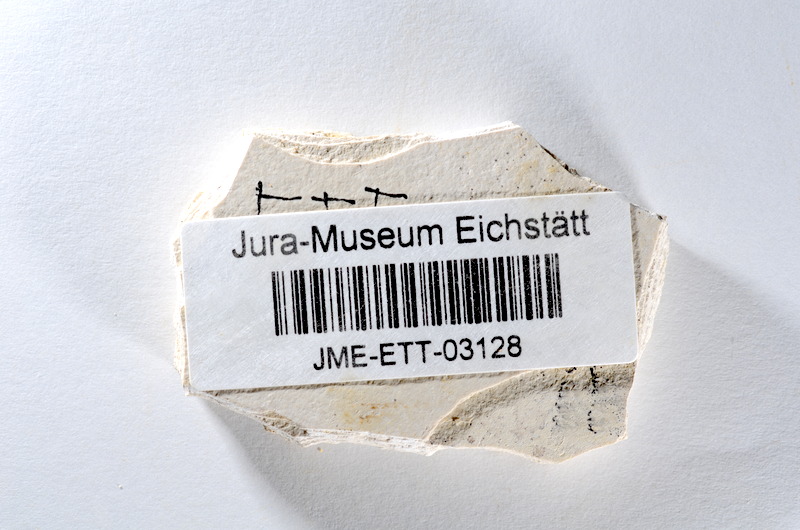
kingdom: Animalia
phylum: Chordata
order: Salmoniformes
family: Orthogonikleithridae
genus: Orthogonikleithrus
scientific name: Orthogonikleithrus hoelli
